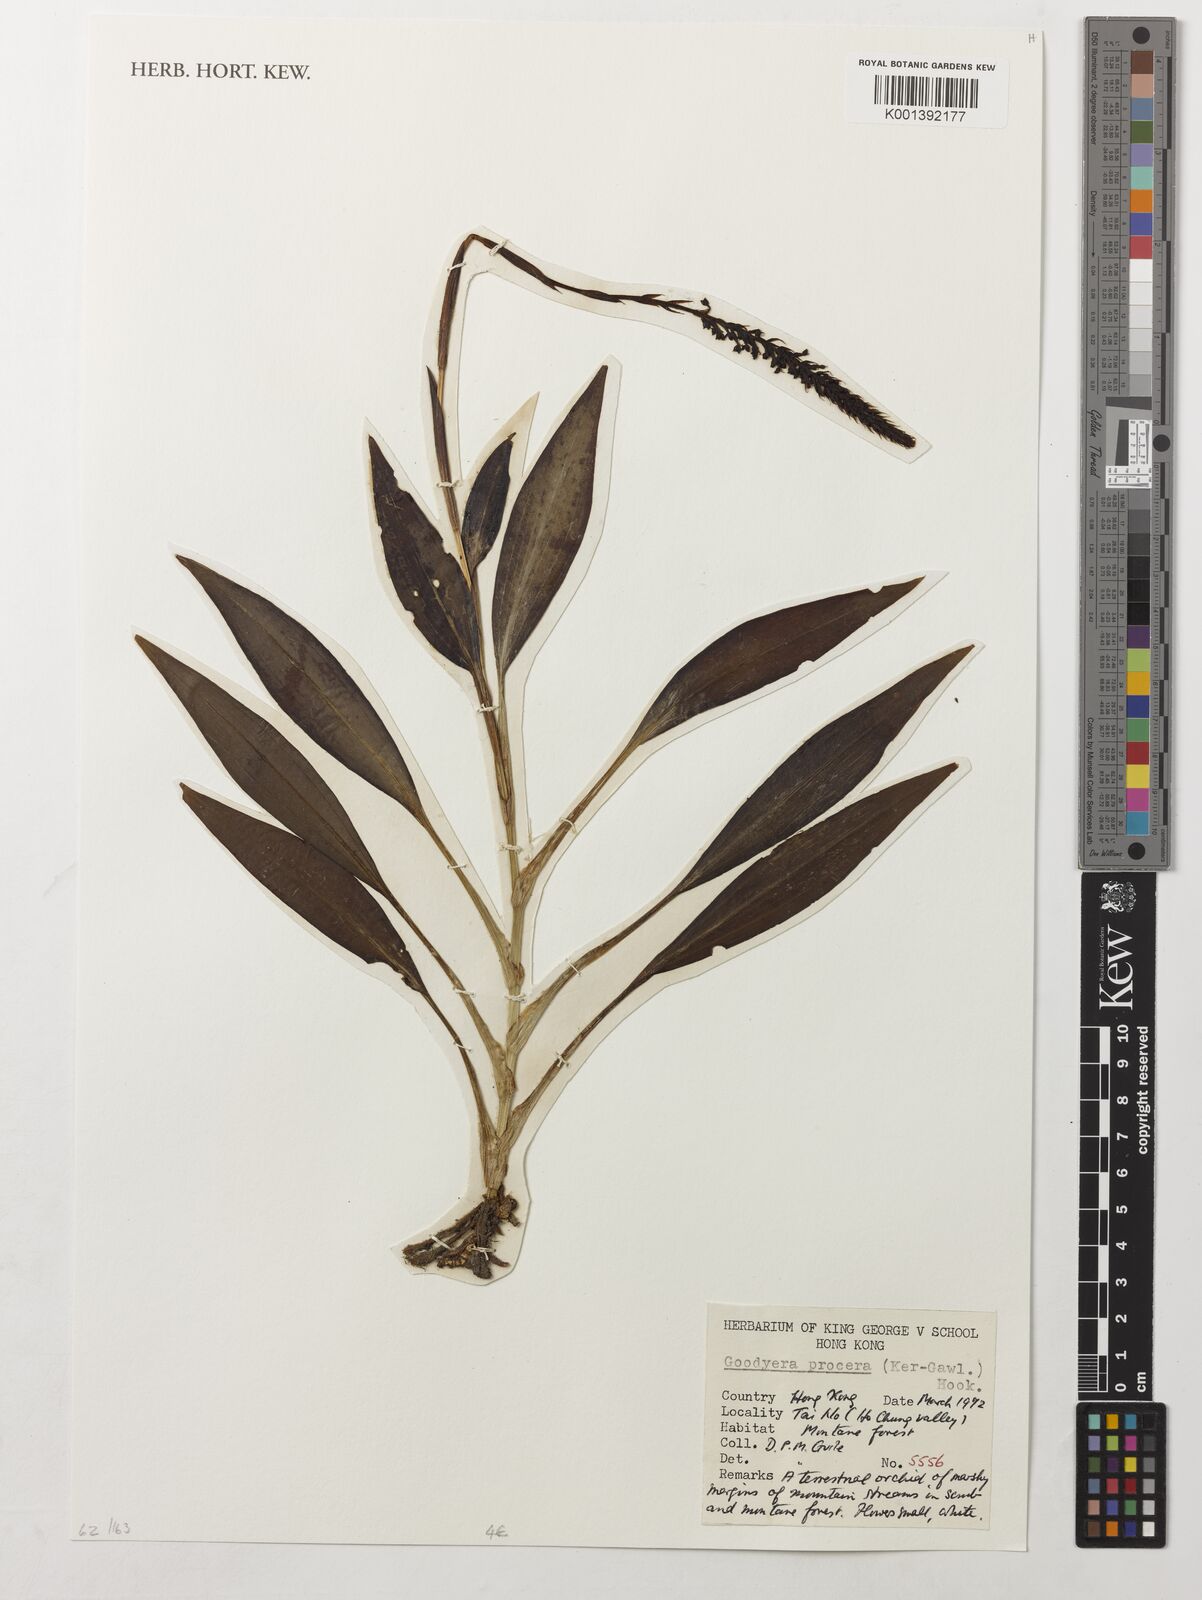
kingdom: Plantae
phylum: Tracheophyta
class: Liliopsida
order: Asparagales
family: Orchidaceae
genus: Goodyera
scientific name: Goodyera procera
